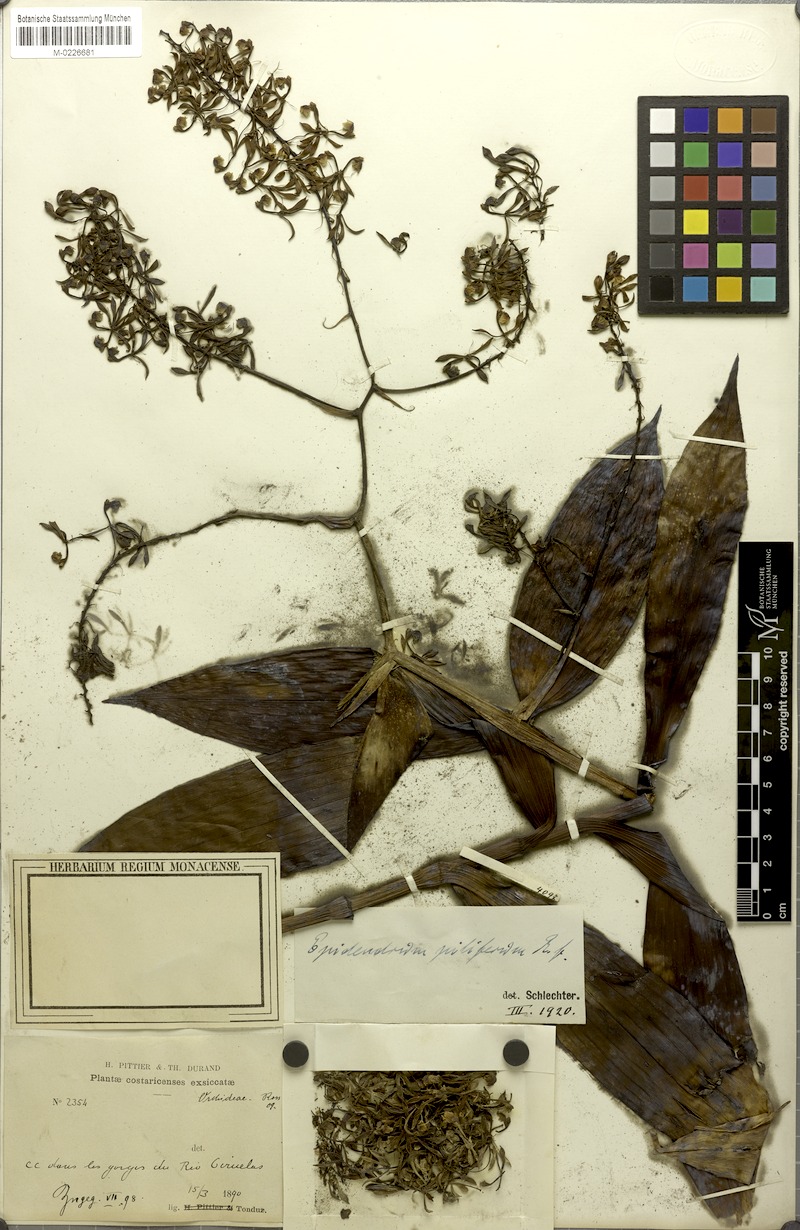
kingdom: Plantae
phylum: Tracheophyta
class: Liliopsida
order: Asparagales
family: Orchidaceae
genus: Epidendrum
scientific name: Epidendrum piliferum
